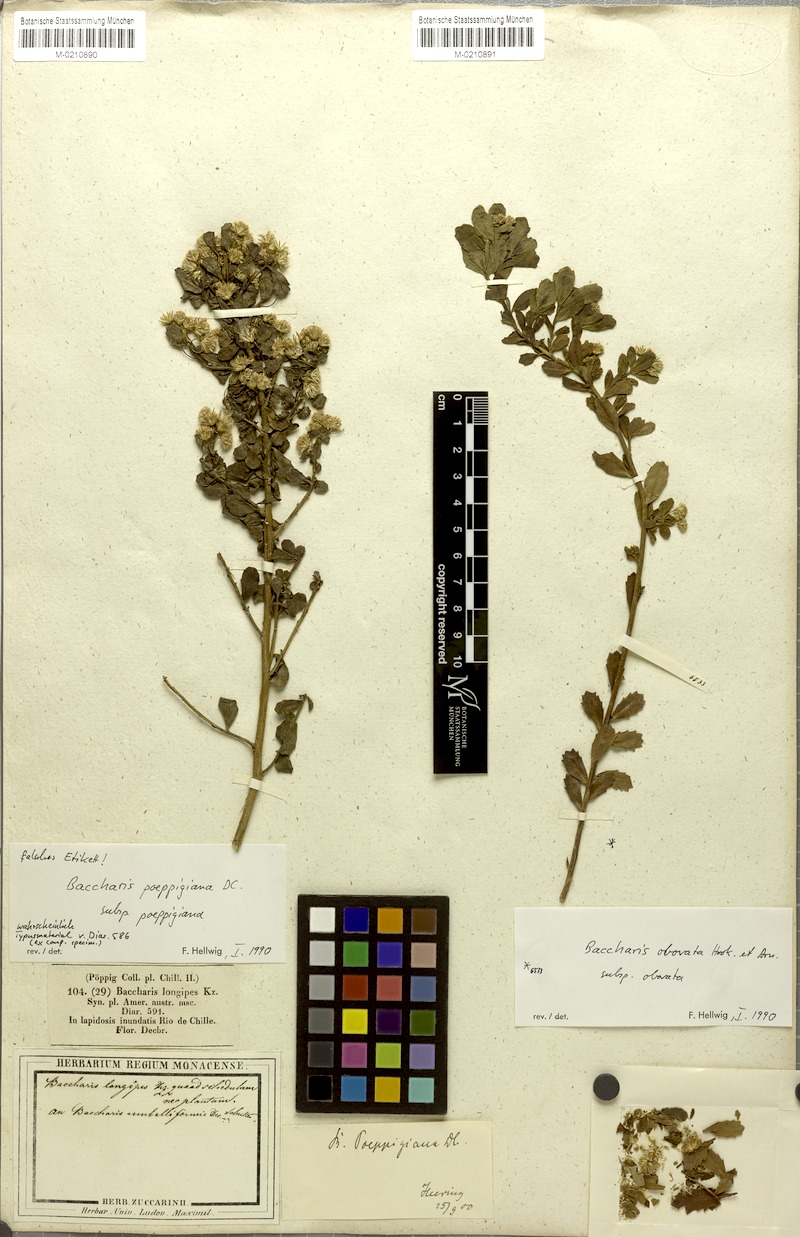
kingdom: Plantae
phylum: Tracheophyta
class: Magnoliopsida
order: Asterales
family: Asteraceae
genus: Baccharis
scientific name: Baccharis poeppigiana
